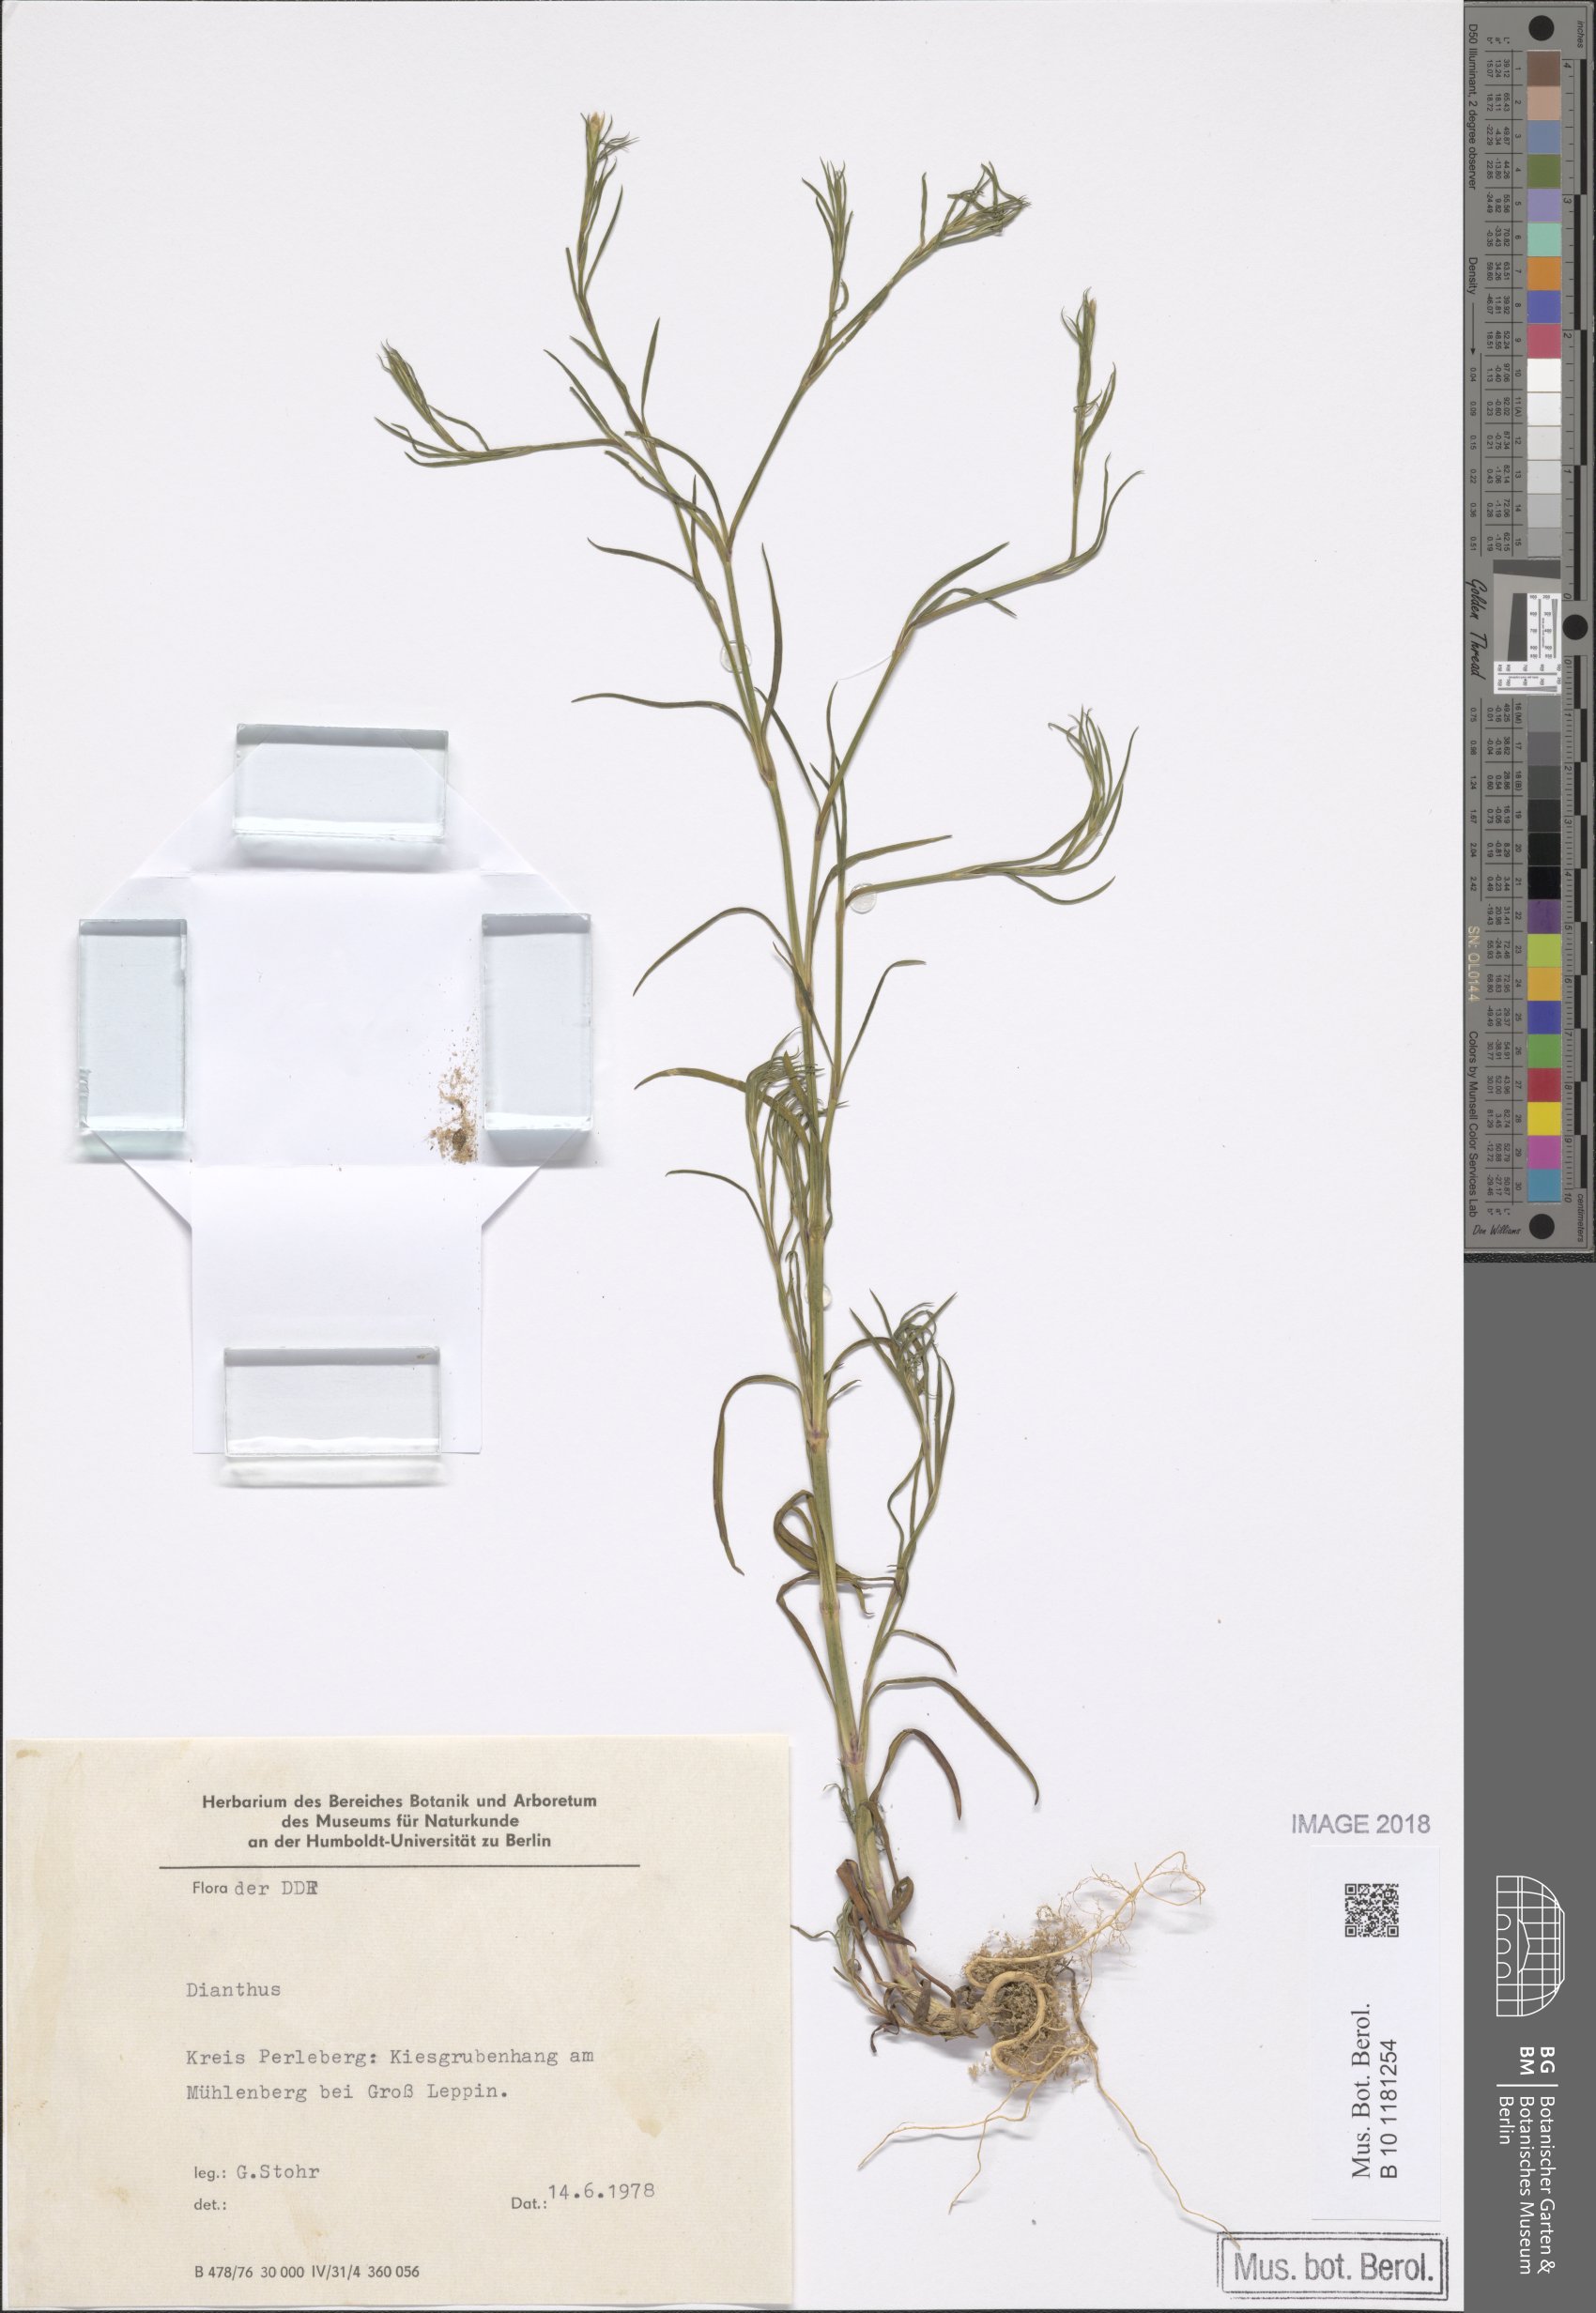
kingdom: Plantae
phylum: Tracheophyta
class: Magnoliopsida
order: Caryophyllales
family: Caryophyllaceae
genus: Petrorhagia
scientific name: Petrorhagia prolifera
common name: Proliferous pink
